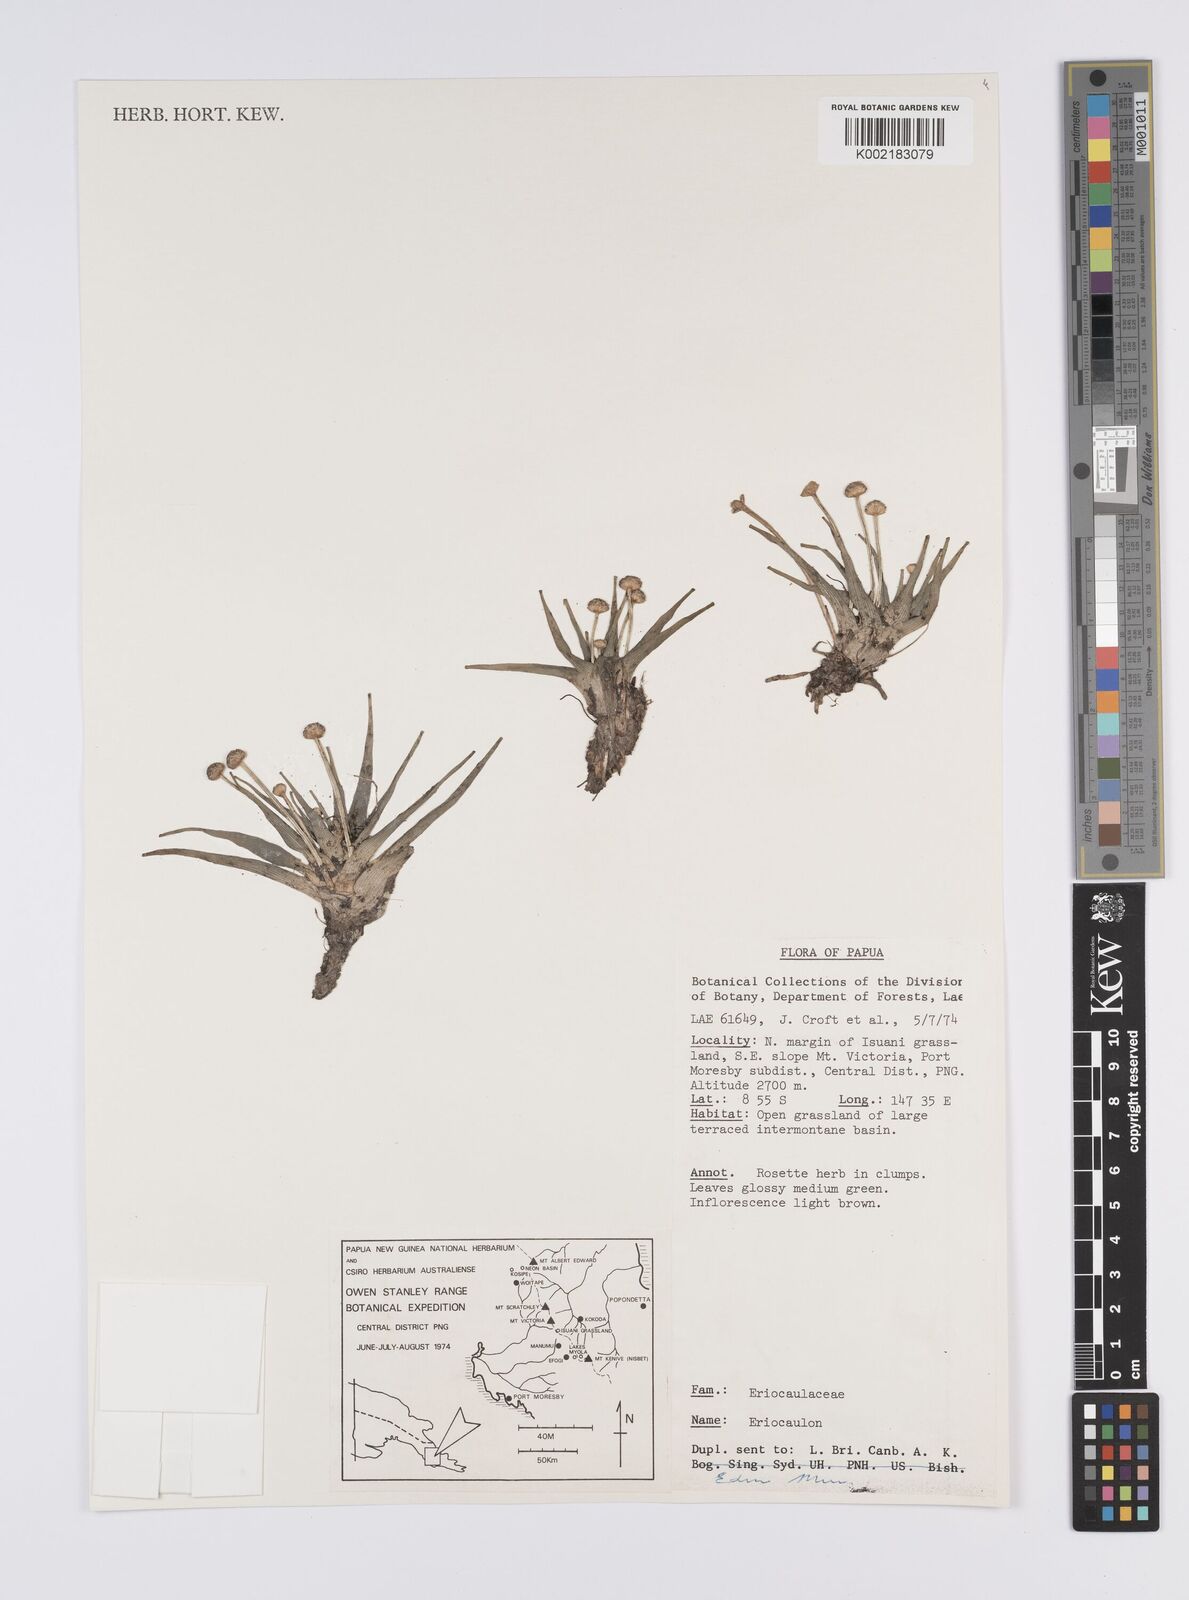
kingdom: Plantae
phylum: Tracheophyta
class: Liliopsida
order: Poales
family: Eriocaulaceae
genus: Eriocaulon
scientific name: Eriocaulon
